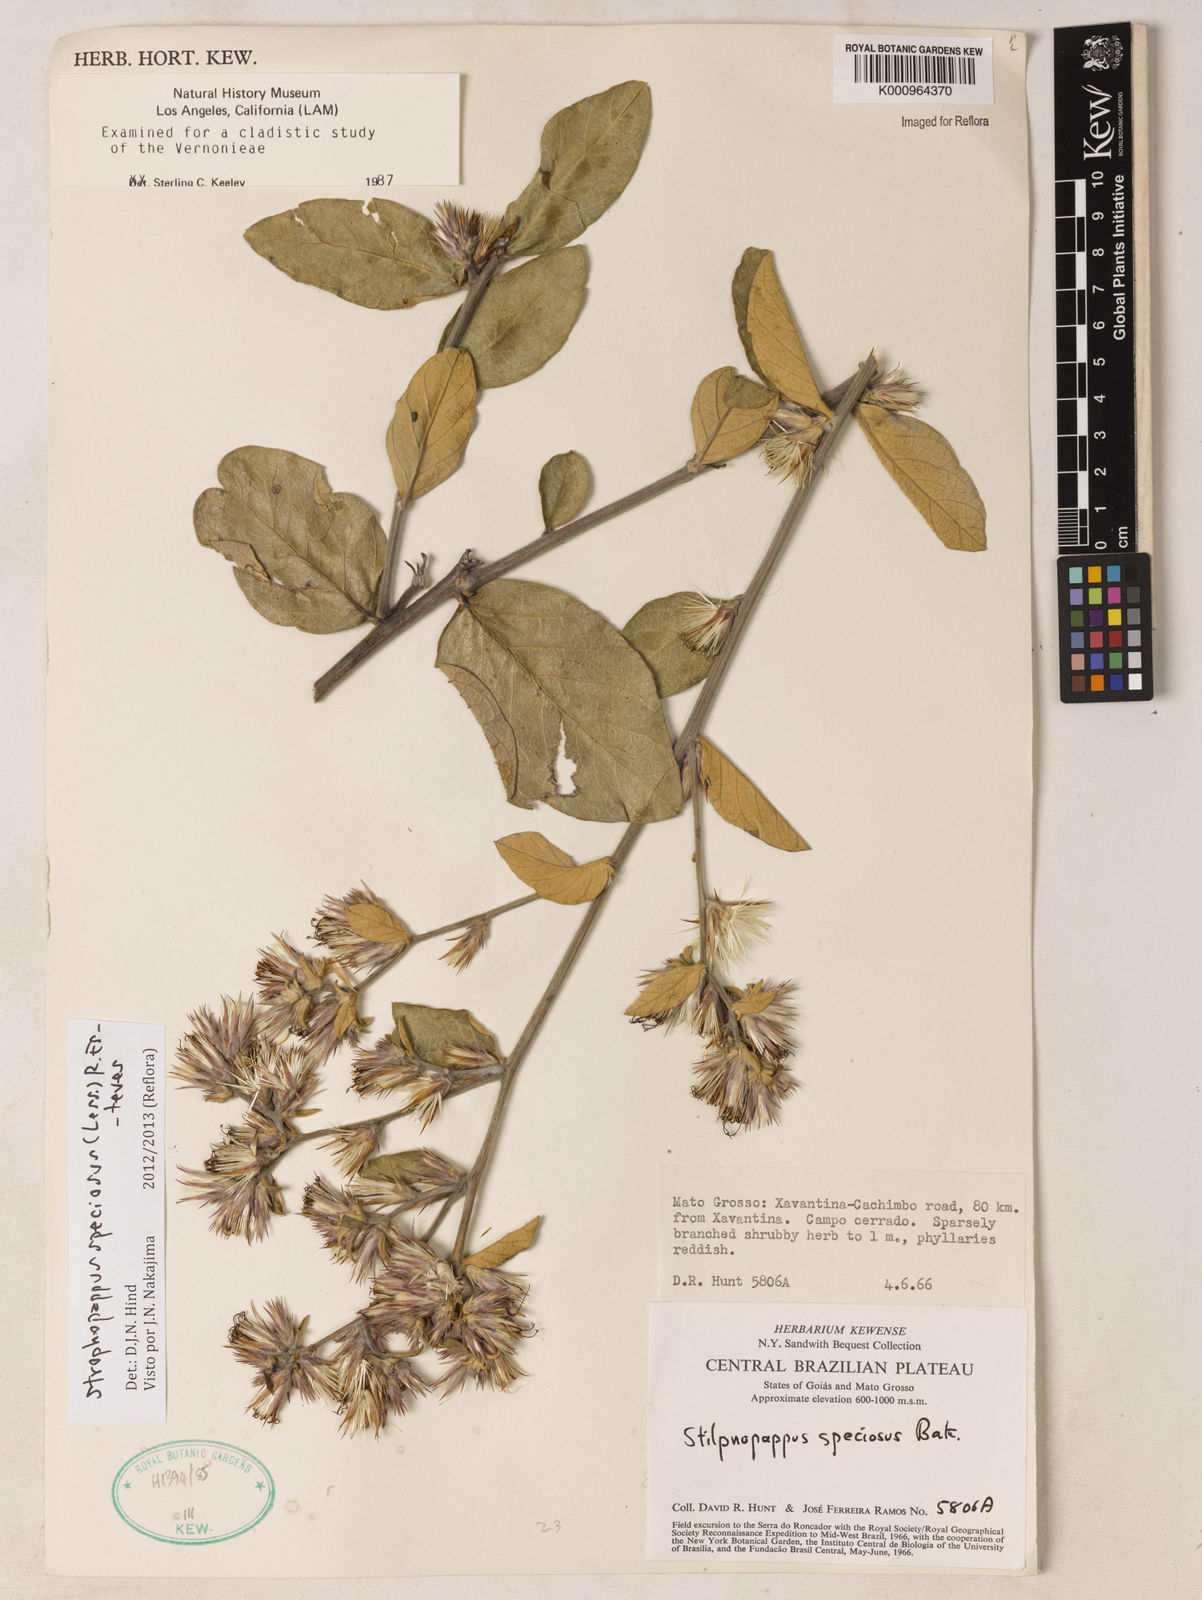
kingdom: Plantae
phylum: Tracheophyta
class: Magnoliopsida
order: Asterales
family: Asteraceae
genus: Stilpnopappus
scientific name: Stilpnopappus speciosus
